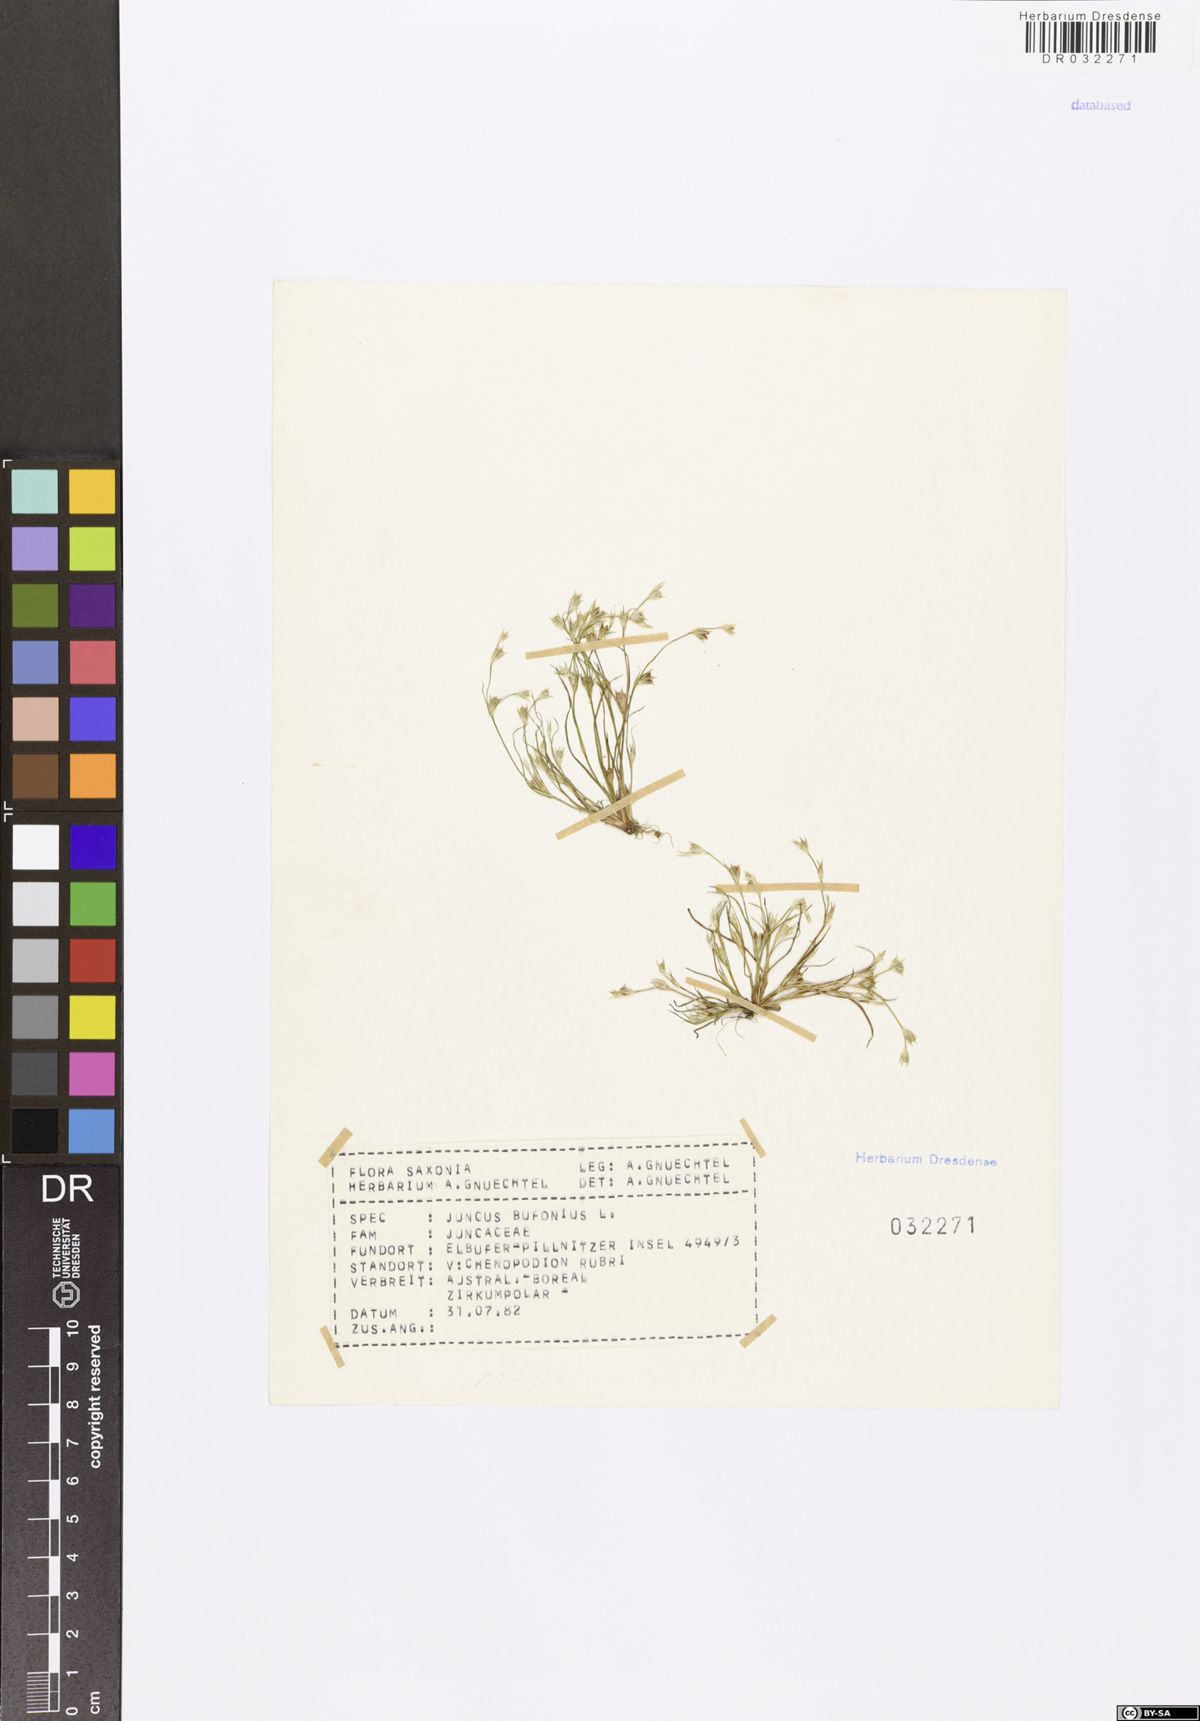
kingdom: Plantae
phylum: Tracheophyta
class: Liliopsida
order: Poales
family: Juncaceae
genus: Juncus
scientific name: Juncus bufonius
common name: Toad rush
